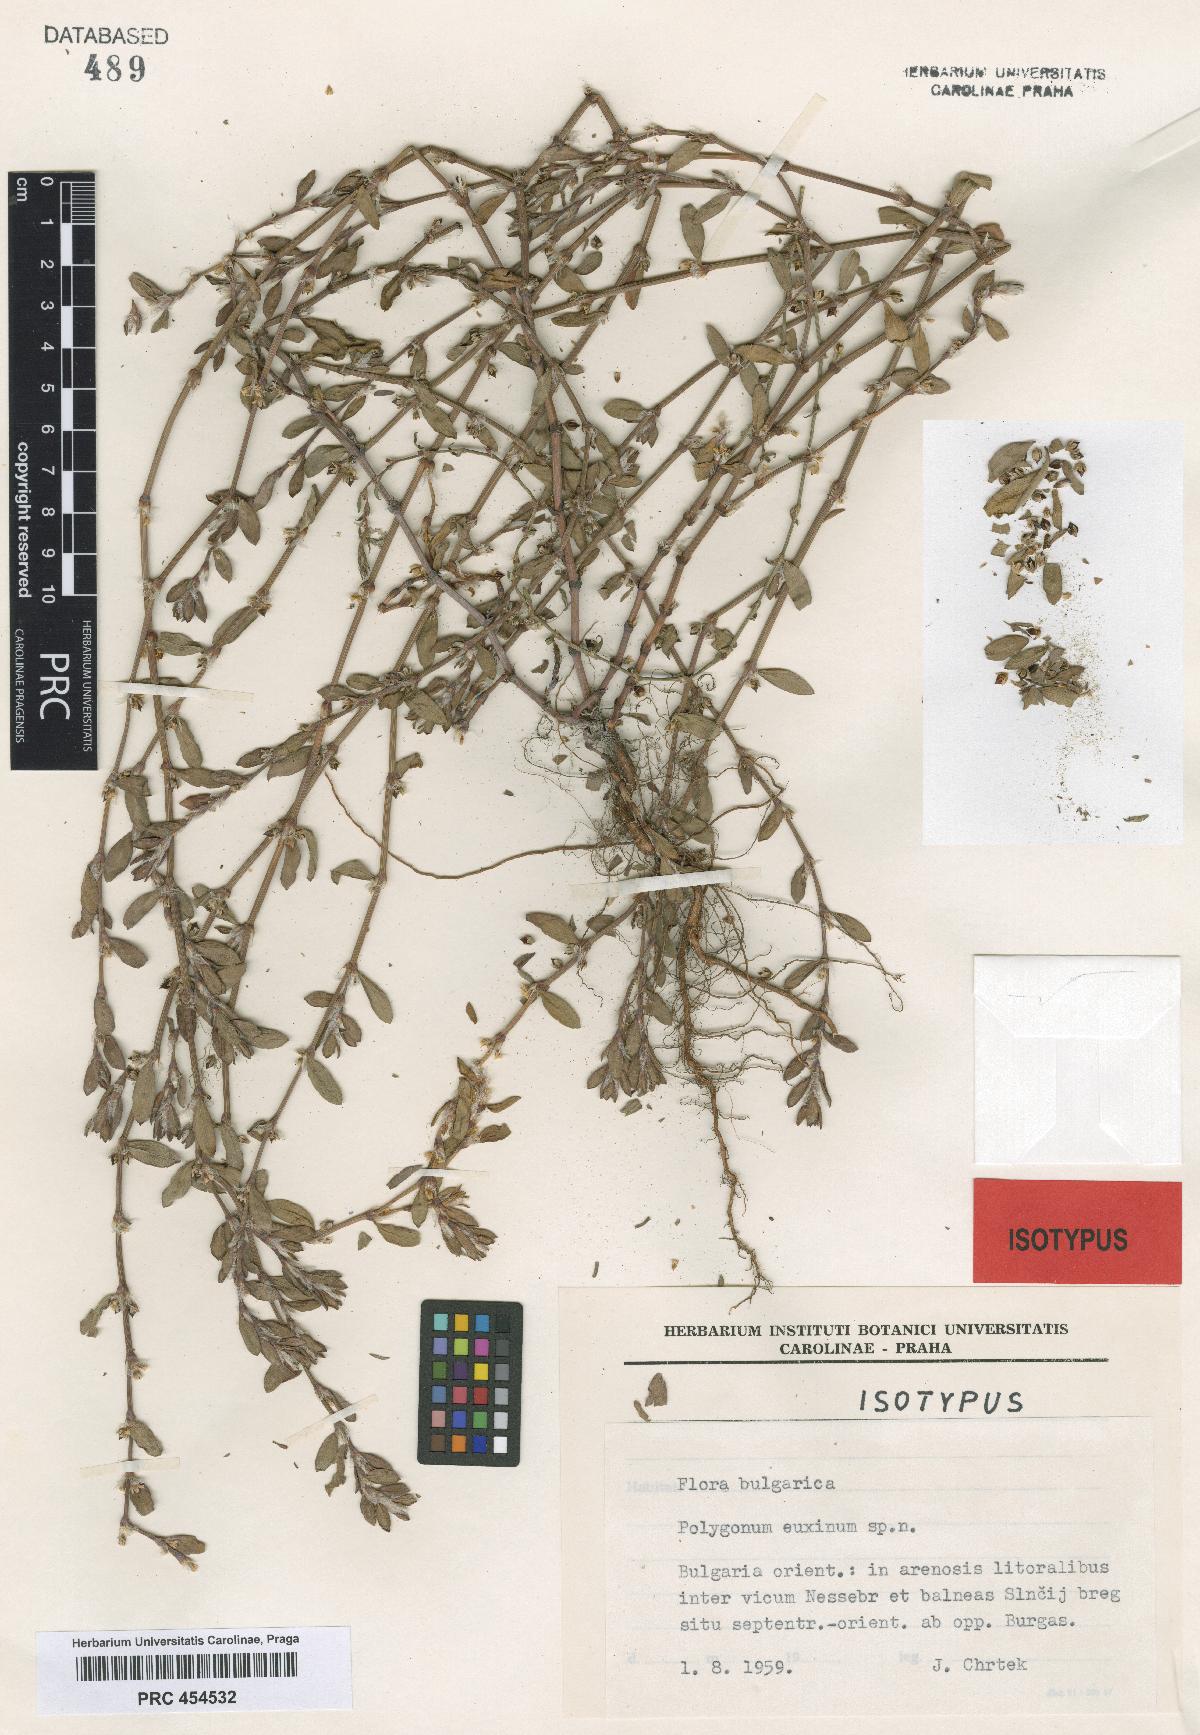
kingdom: Plantae
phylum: Tracheophyta
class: Magnoliopsida
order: Caryophyllales
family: Polygonaceae
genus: Polygonum
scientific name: Polygonum mesembricum
